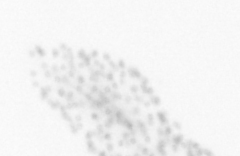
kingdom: Chromista
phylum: Ochrophyta
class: Bacillariophyceae
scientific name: Bacillariophyceae
